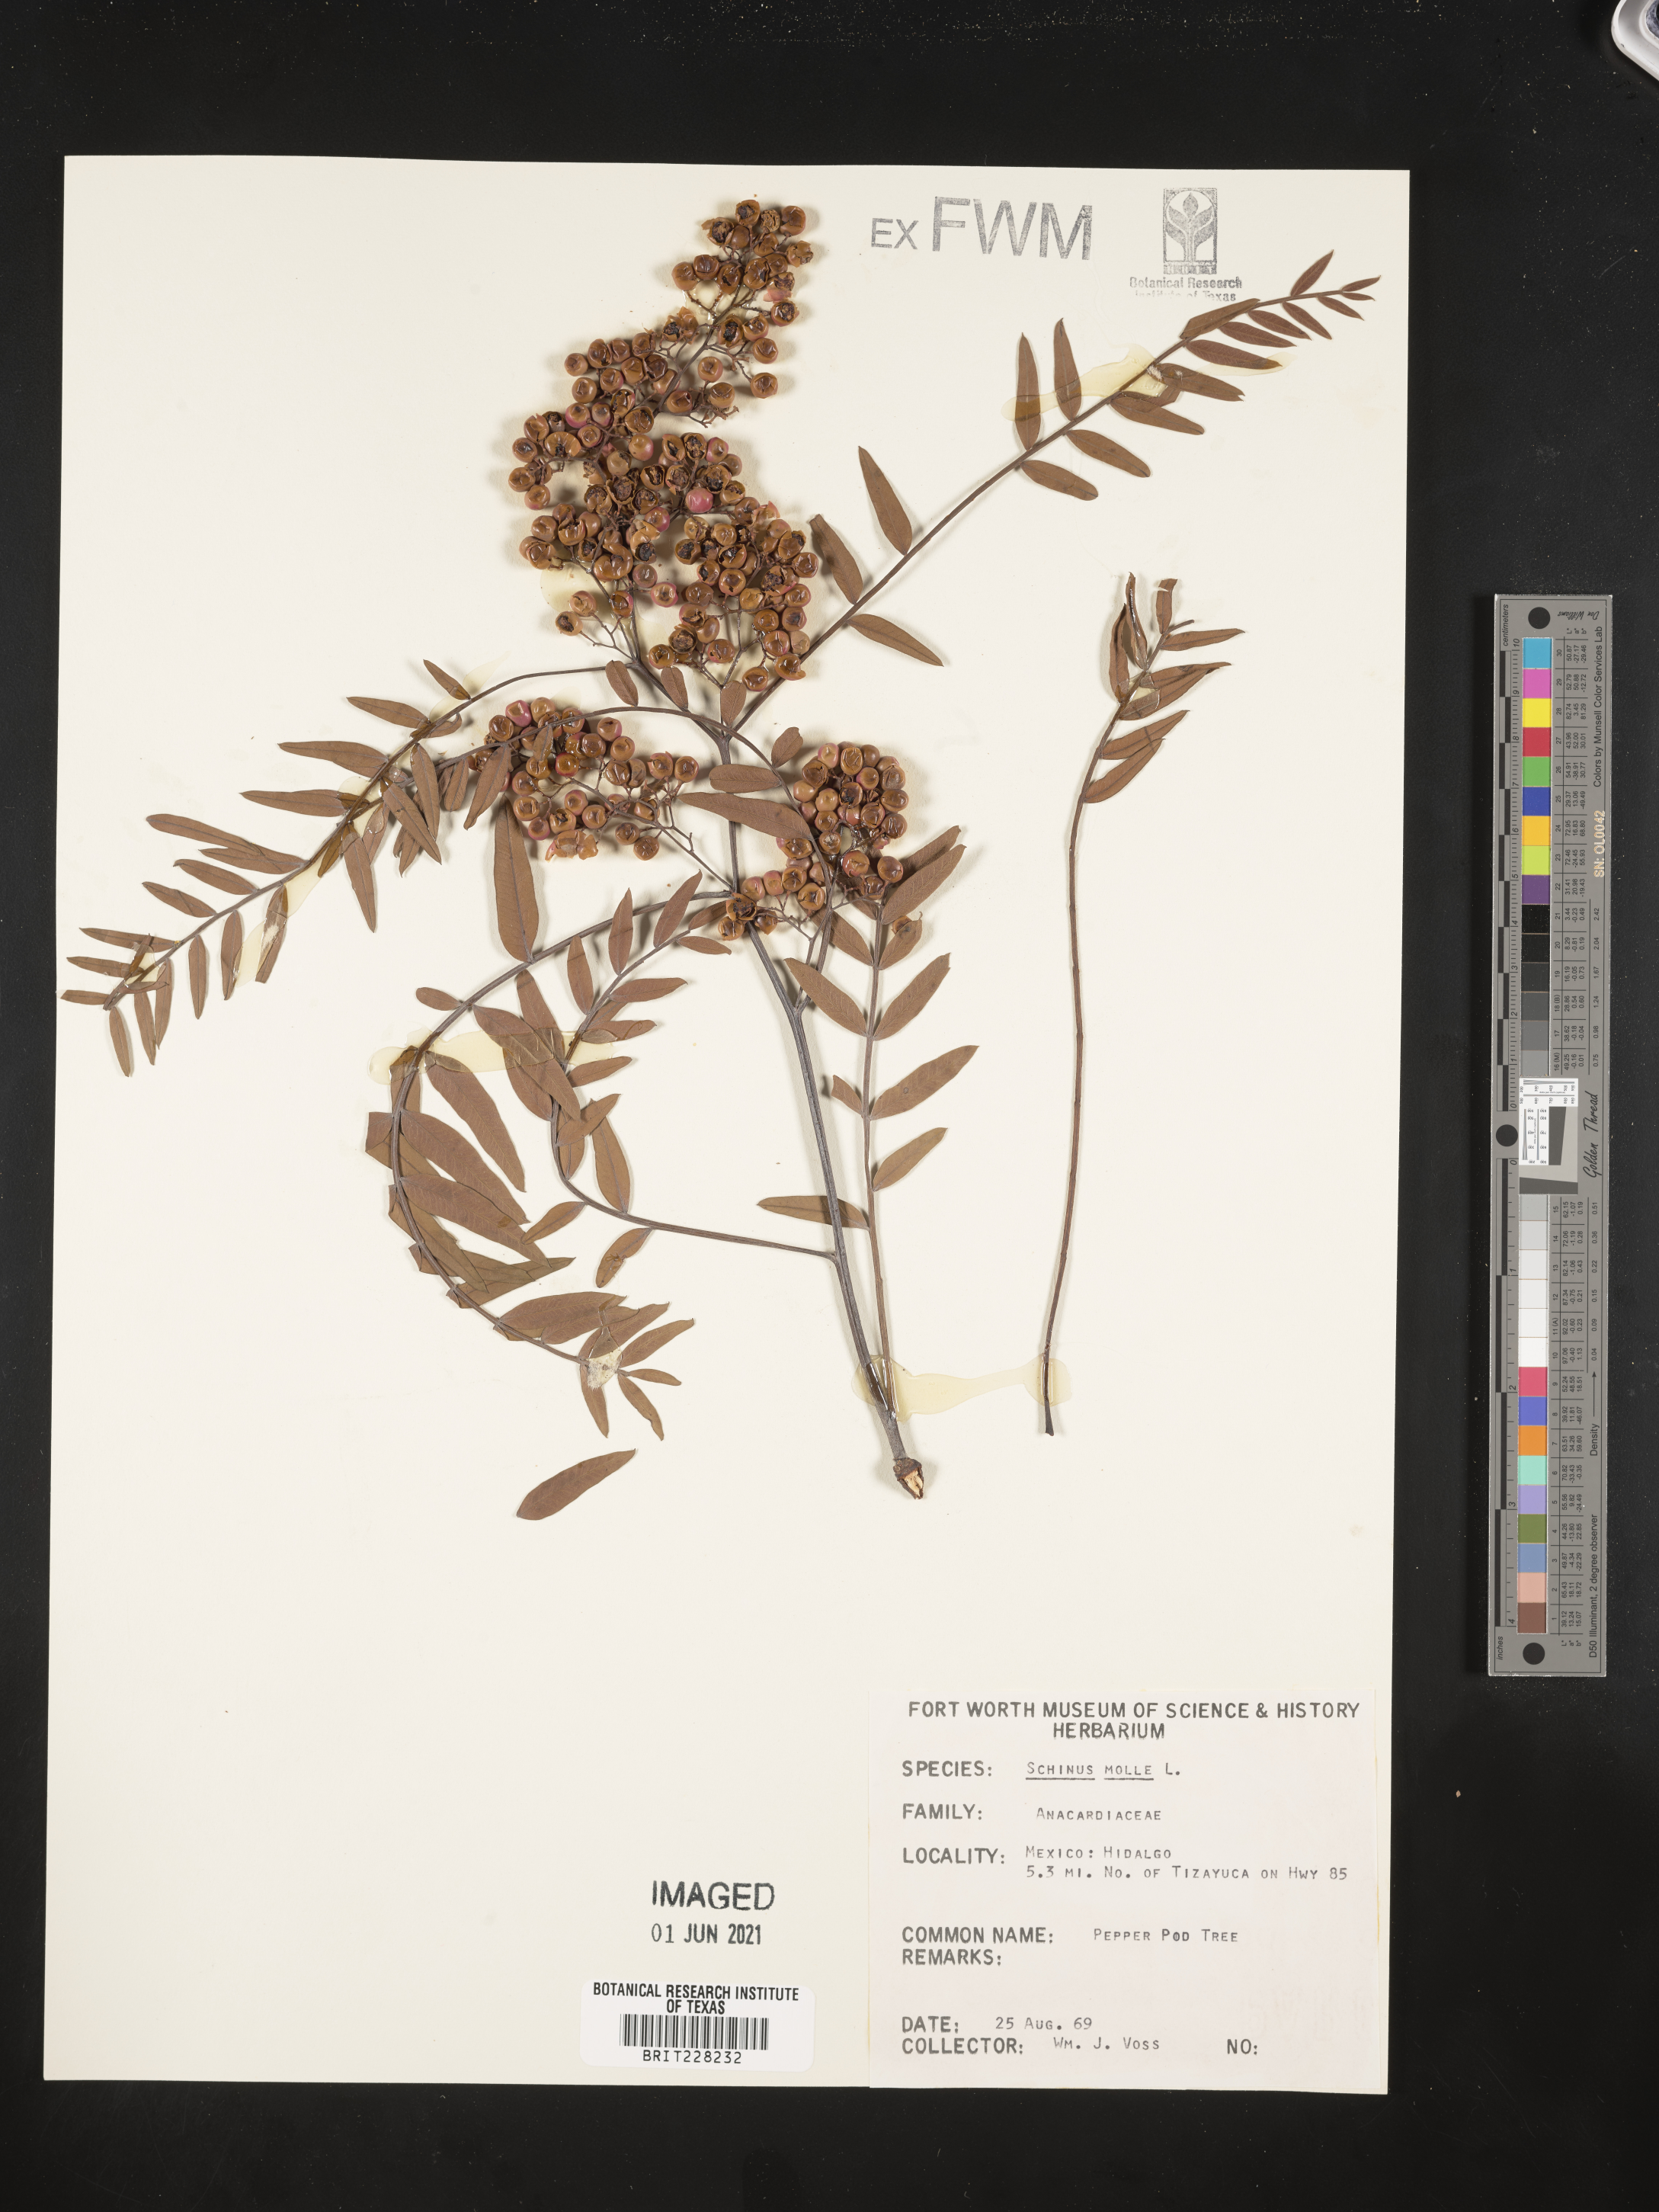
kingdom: Plantae
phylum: Tracheophyta
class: Magnoliopsida
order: Sapindales
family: Anacardiaceae
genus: Schinus
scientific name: Schinus molle
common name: Peruvian peppertree
